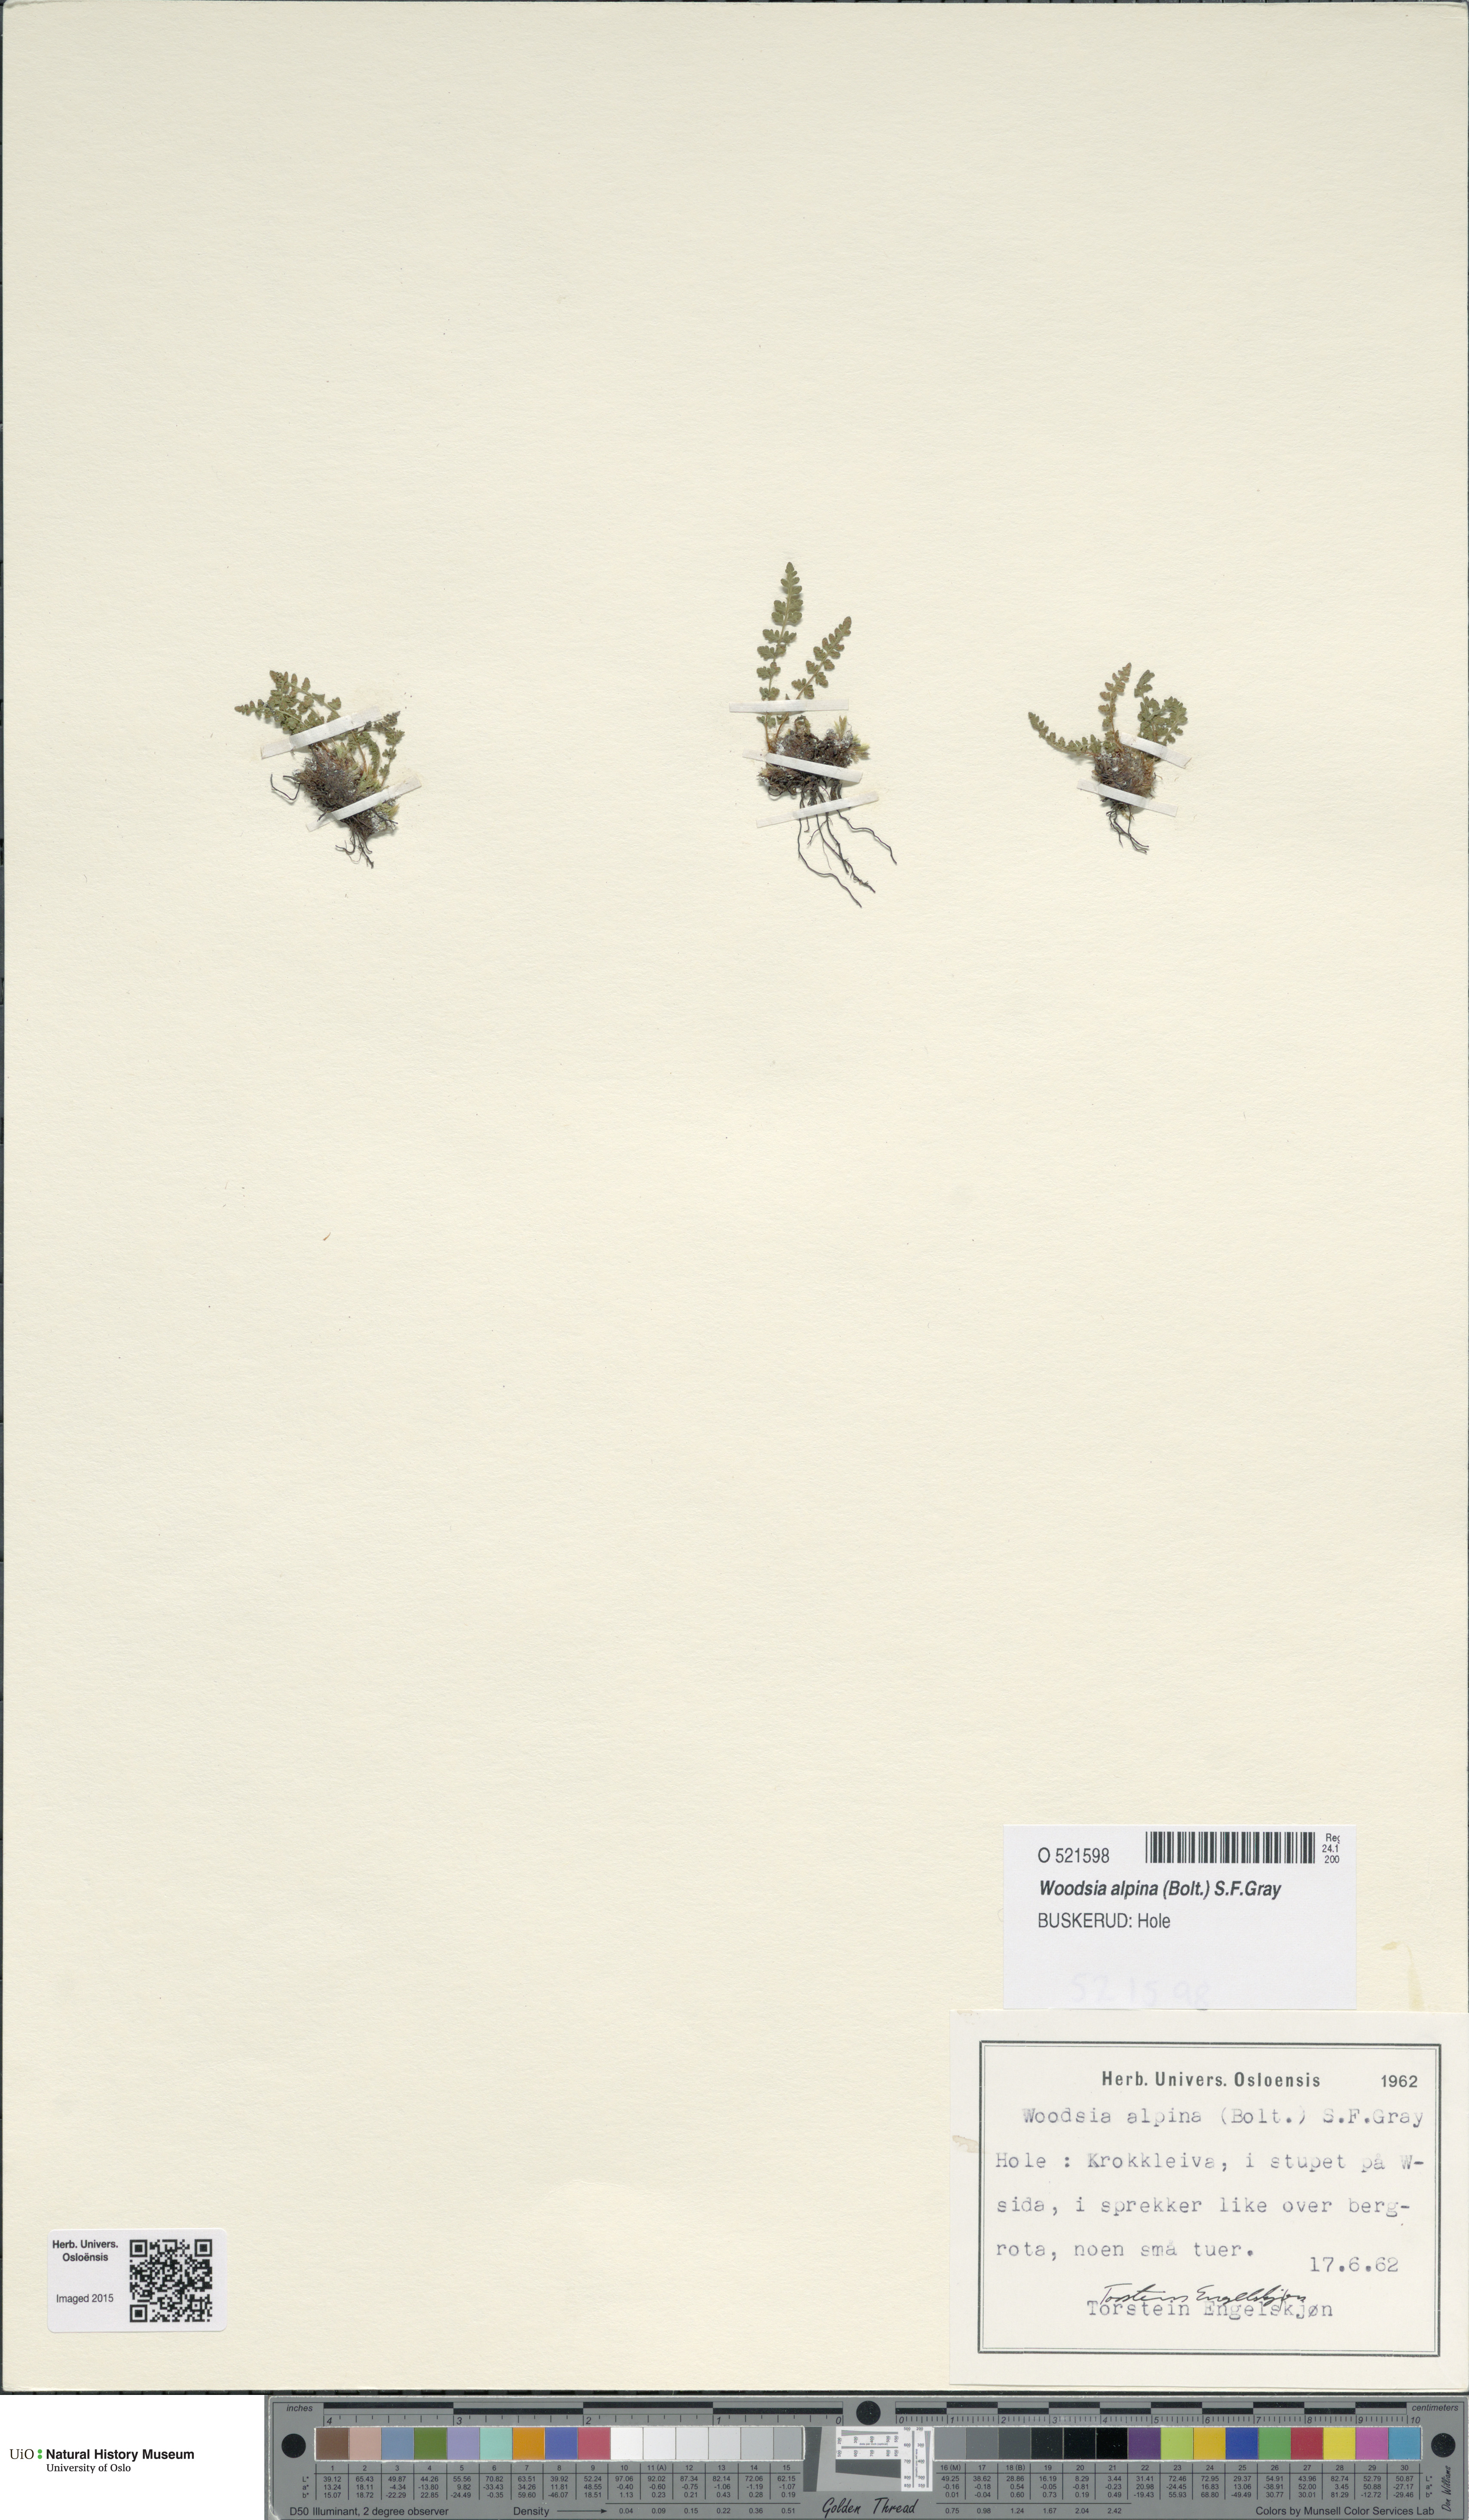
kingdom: Plantae
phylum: Tracheophyta
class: Polypodiopsida
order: Polypodiales
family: Woodsiaceae
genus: Woodsia
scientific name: Woodsia alpina
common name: Alpine woodsia
